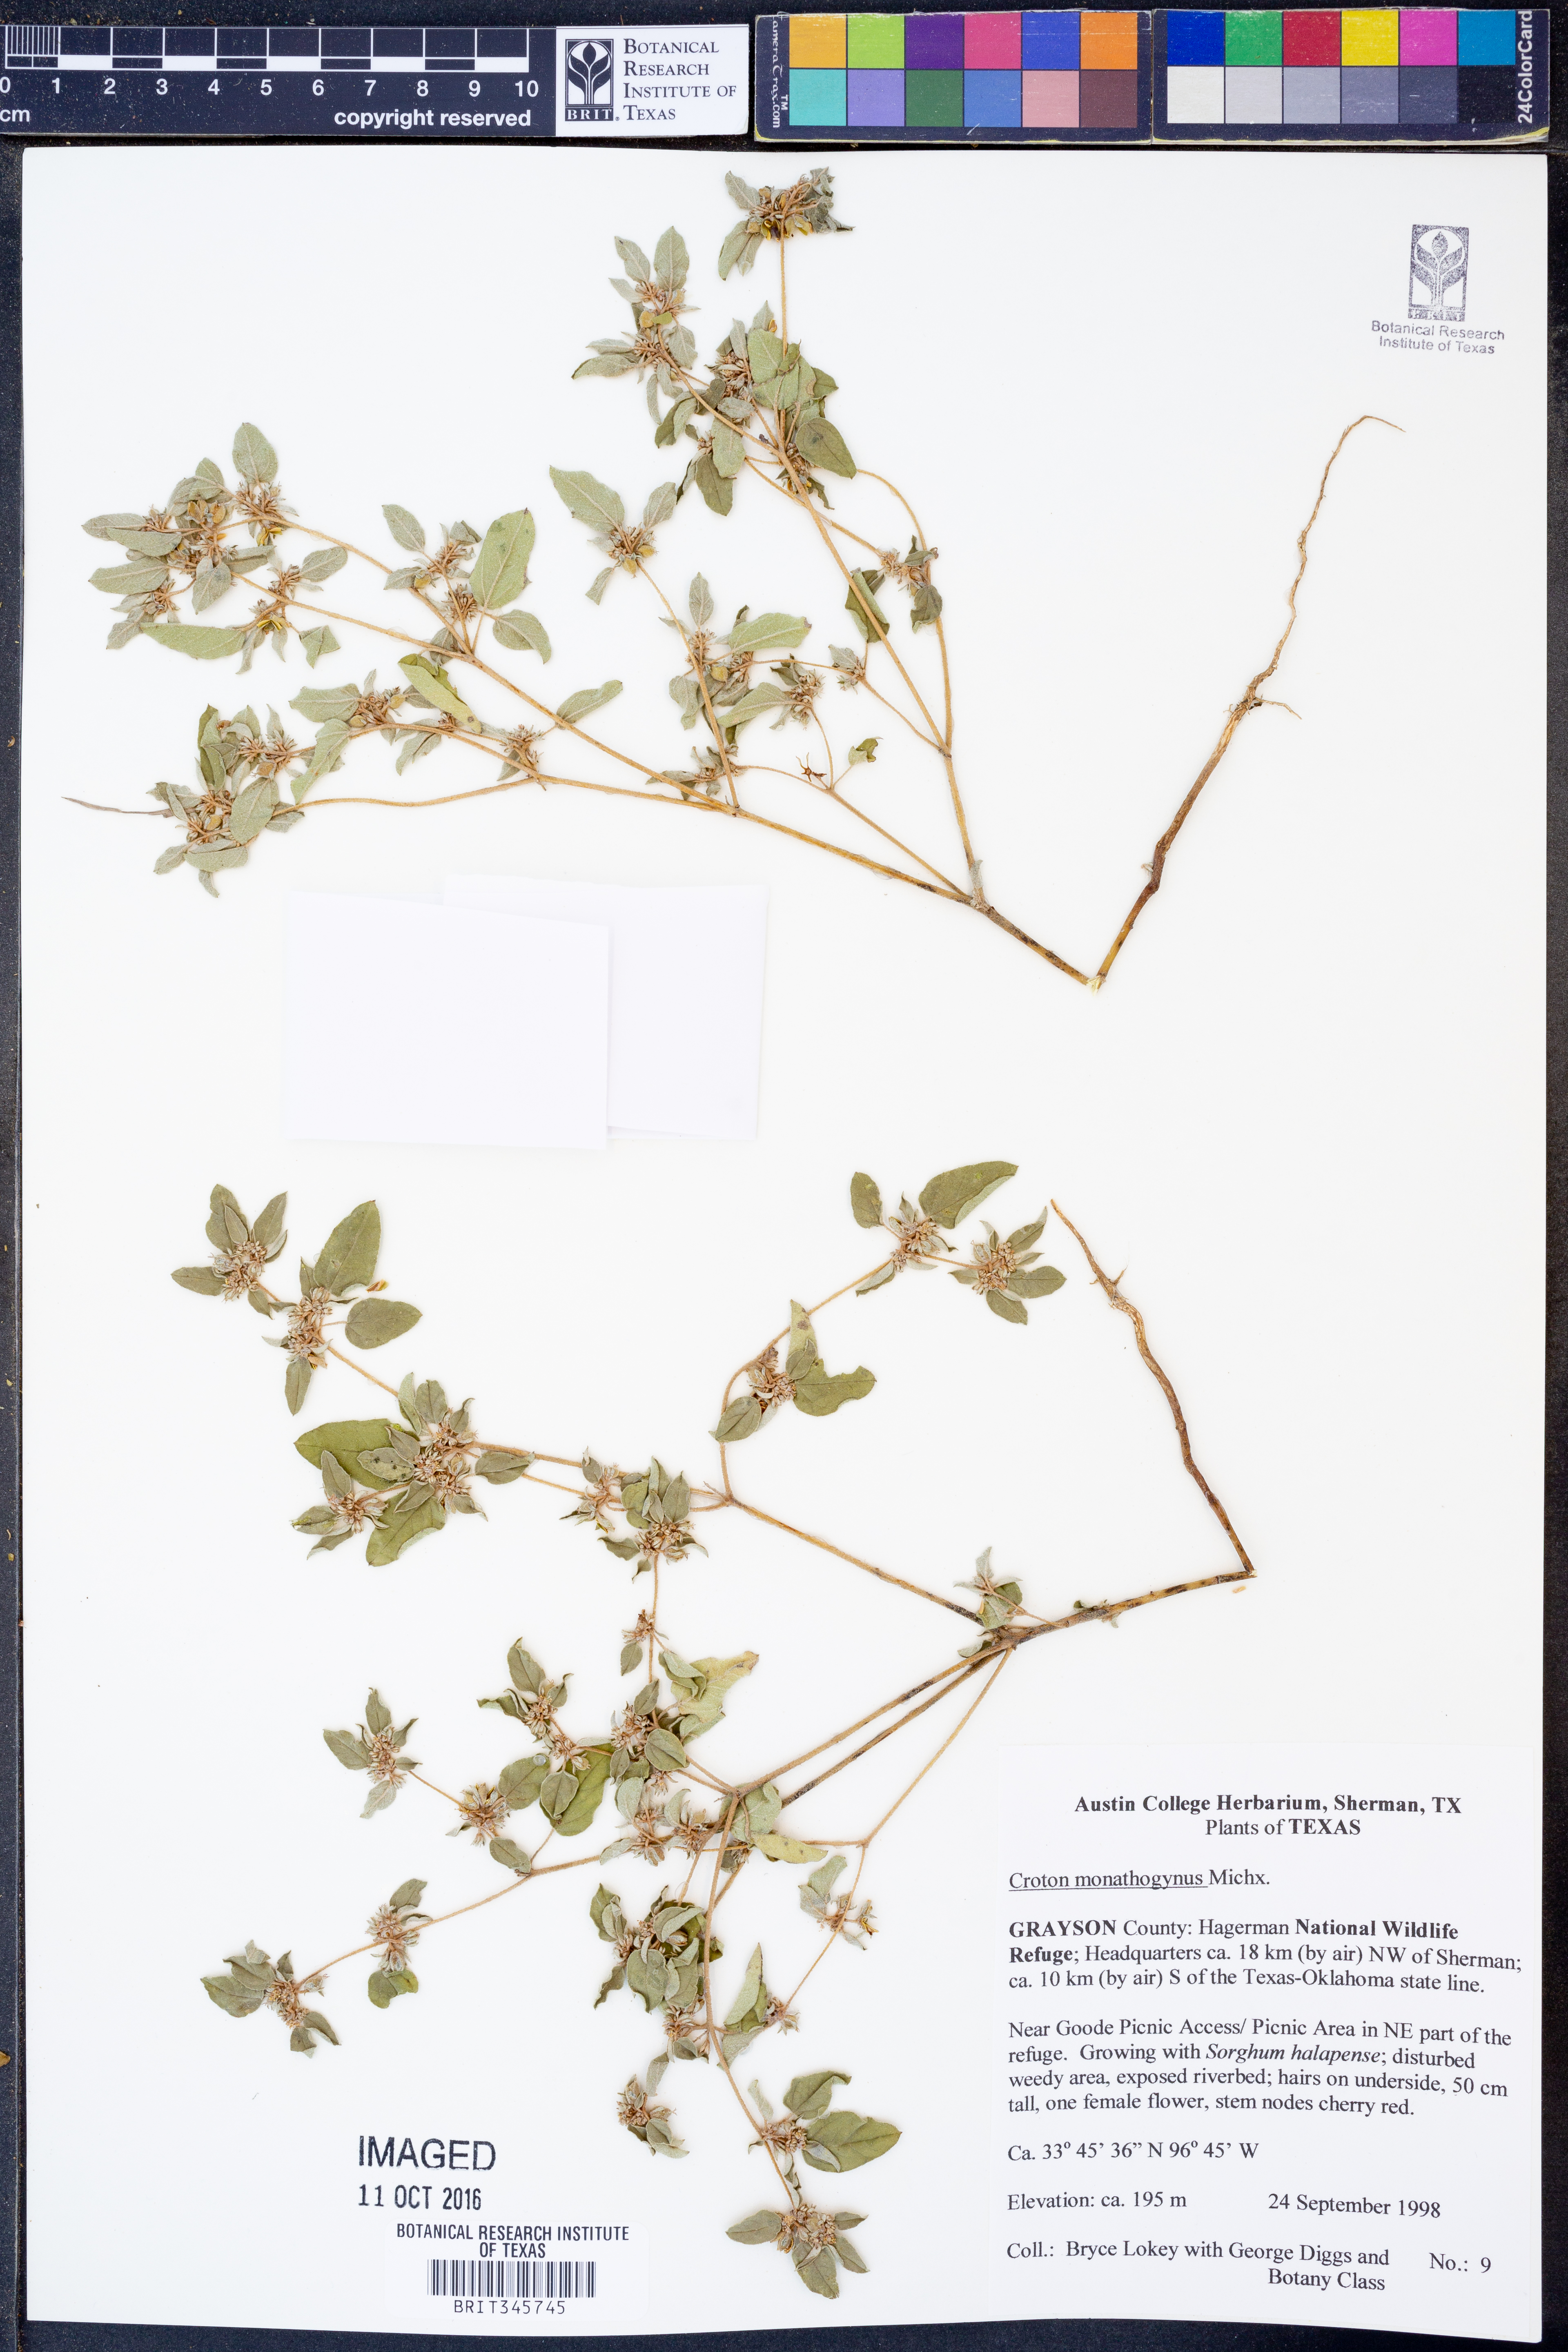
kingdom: Plantae
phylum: Tracheophyta
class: Magnoliopsida
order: Malpighiales
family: Euphorbiaceae
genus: Croton
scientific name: Croton monanthogynus
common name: One-seed croton
